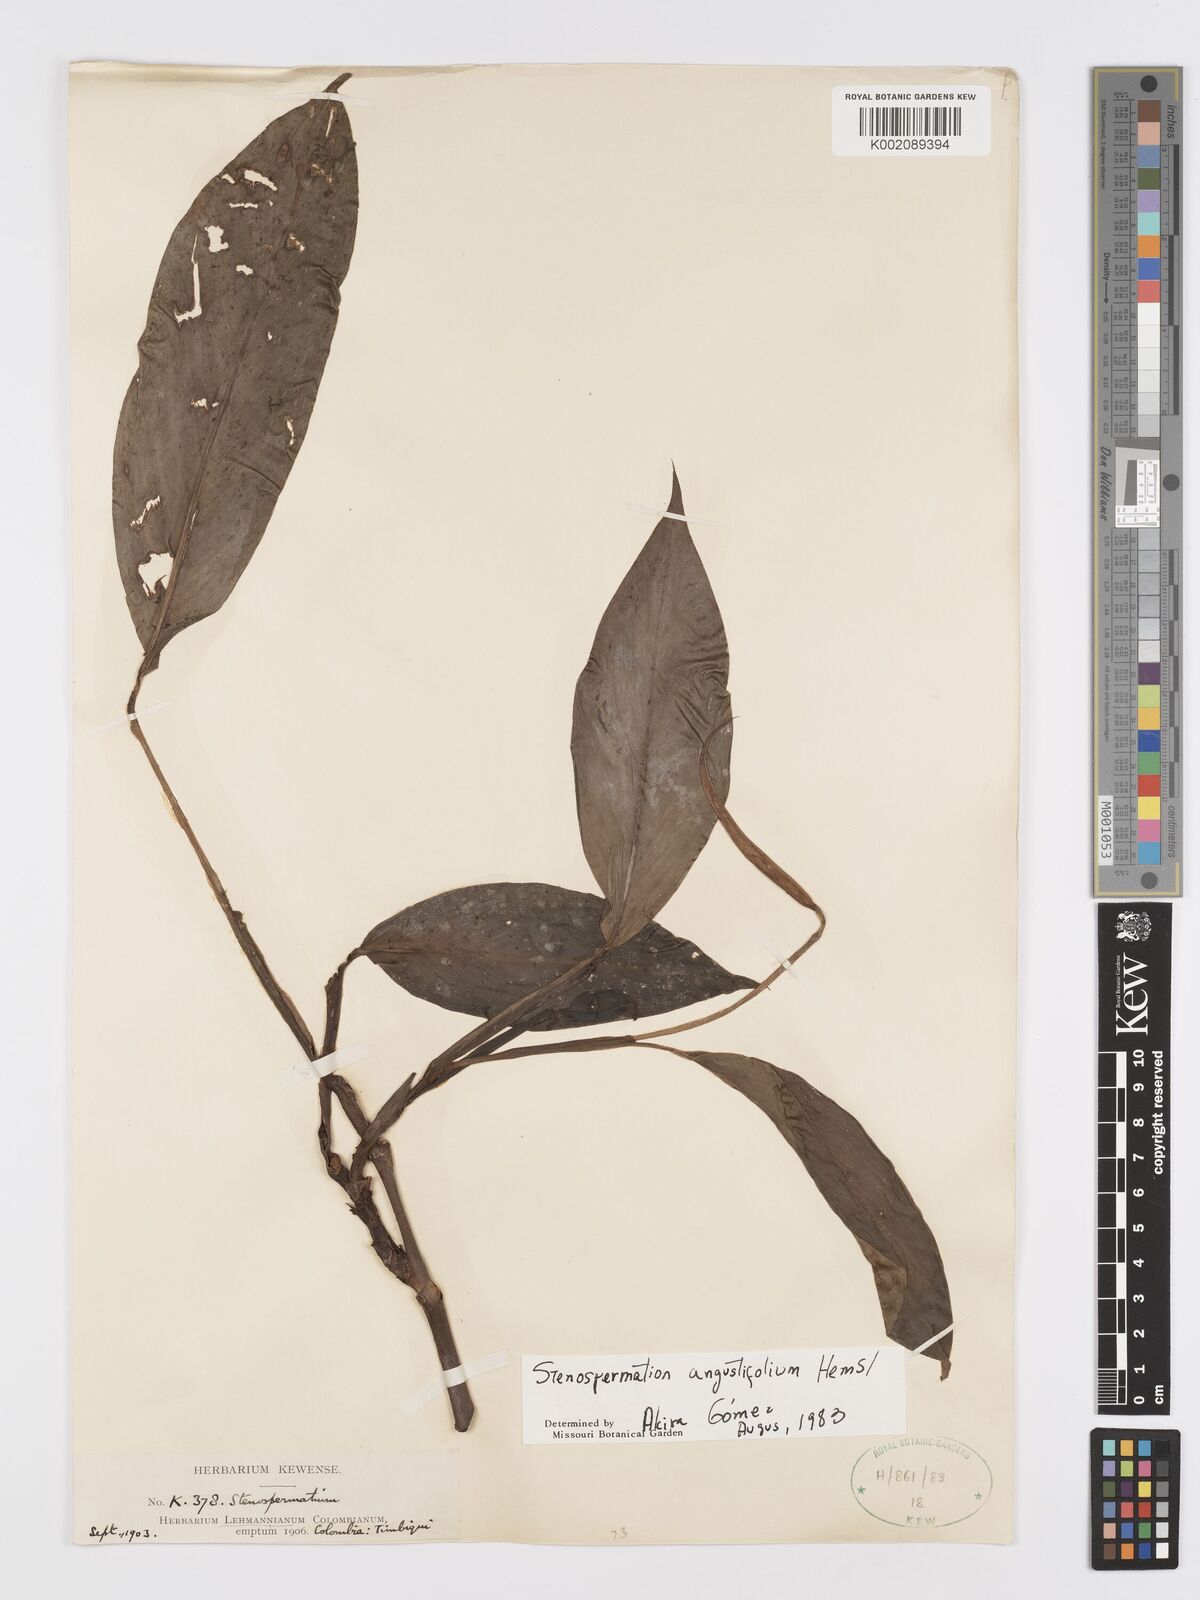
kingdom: Plantae
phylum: Tracheophyta
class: Liliopsida
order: Alismatales
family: Araceae
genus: Stenospermation
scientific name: Stenospermation angustifolium
